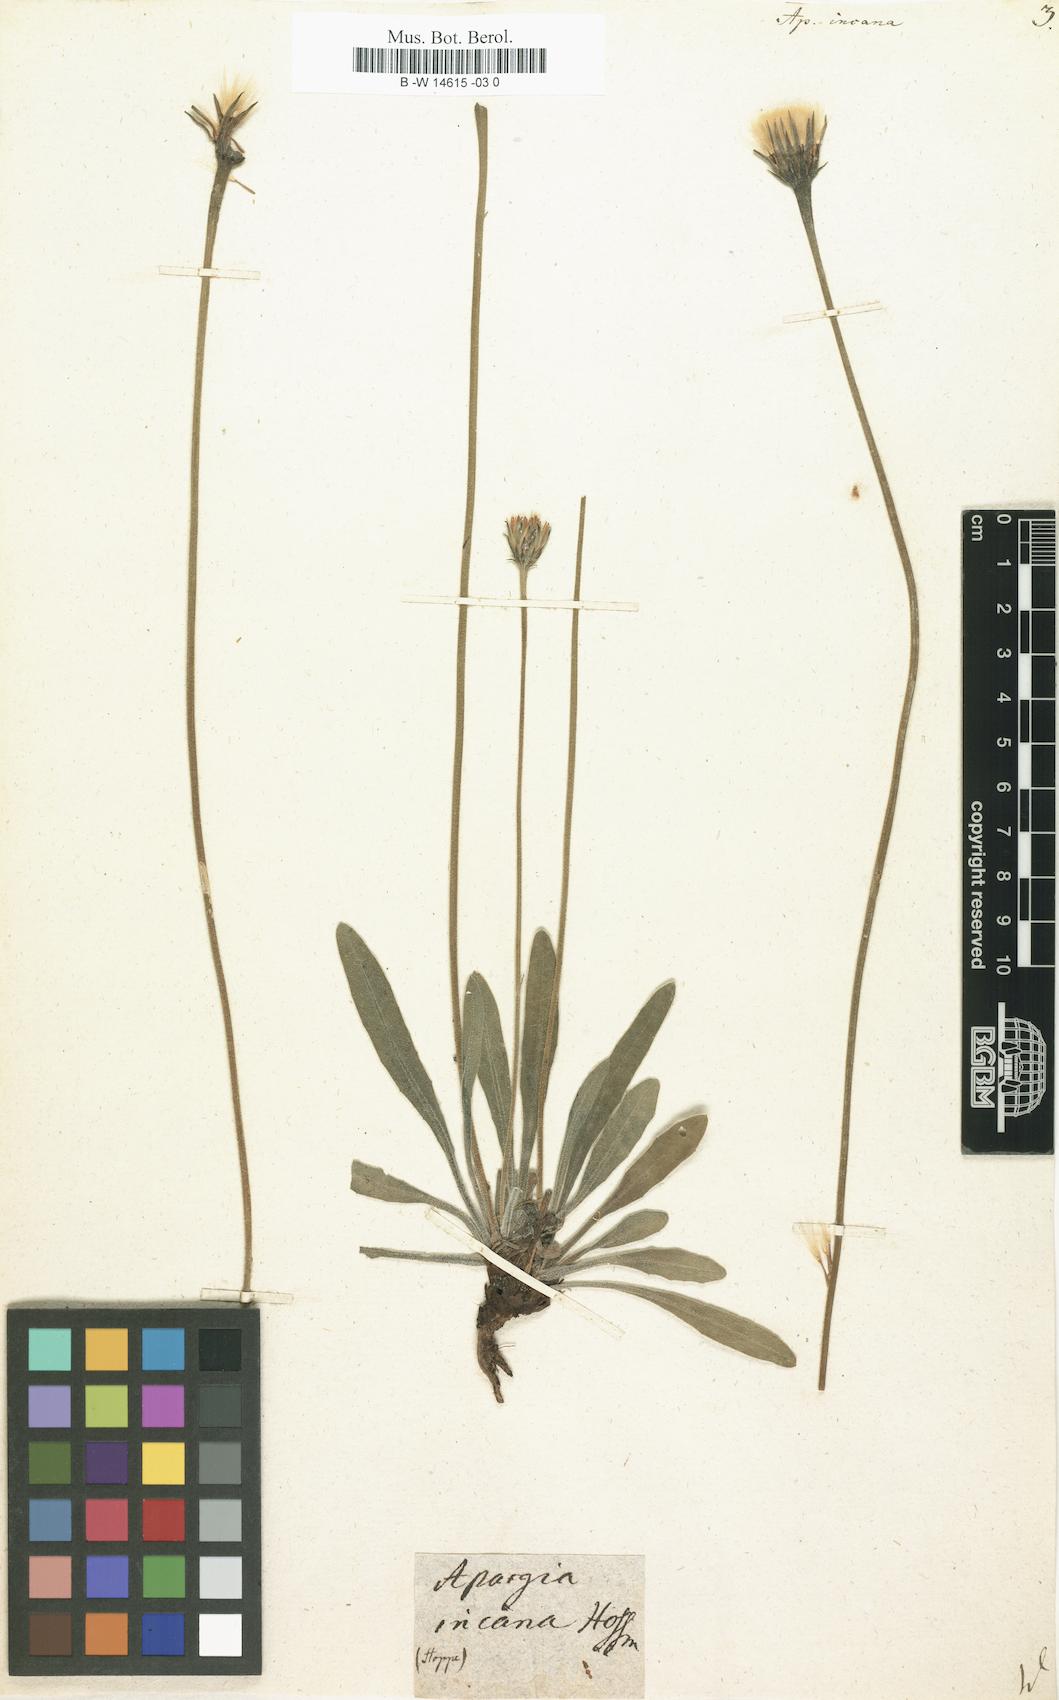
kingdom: Plantae
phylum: Tracheophyta
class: Magnoliopsida
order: Asterales
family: Asteraceae
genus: Leontodon
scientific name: Leontodon
